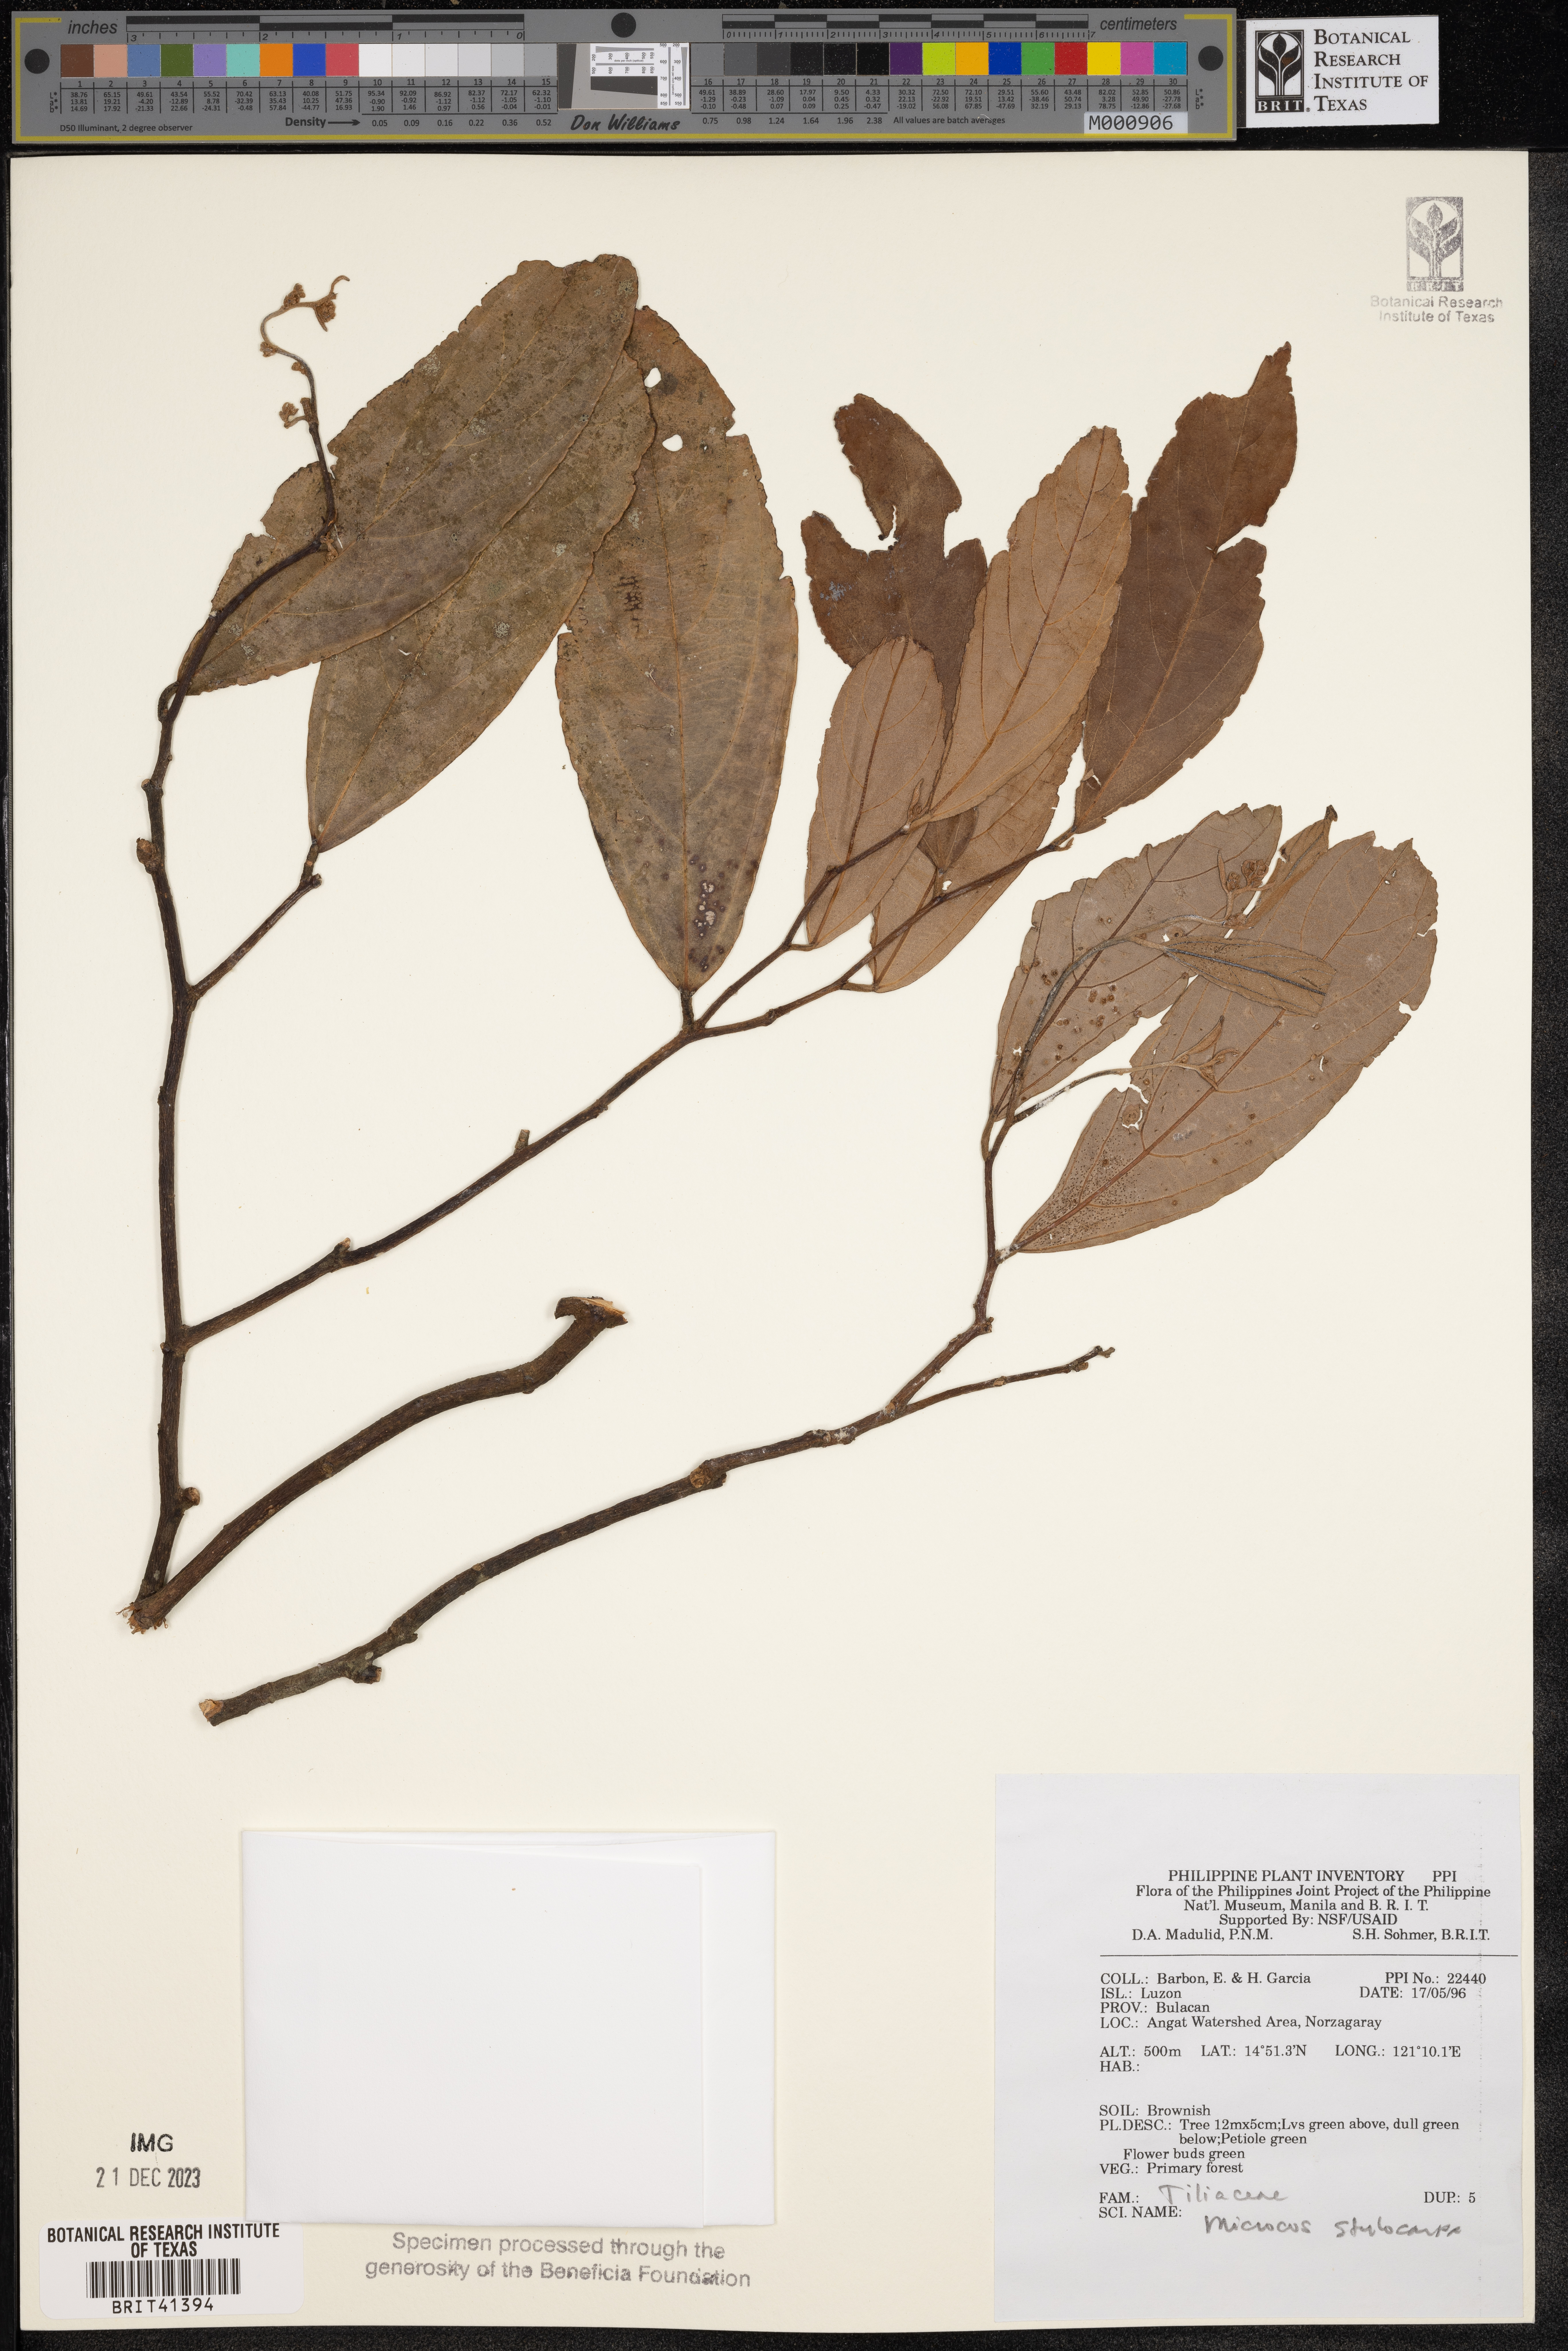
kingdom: Plantae
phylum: Tracheophyta
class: Magnoliopsida
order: Malvales
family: Malvaceae
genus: Microcos
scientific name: Microcos triflora
